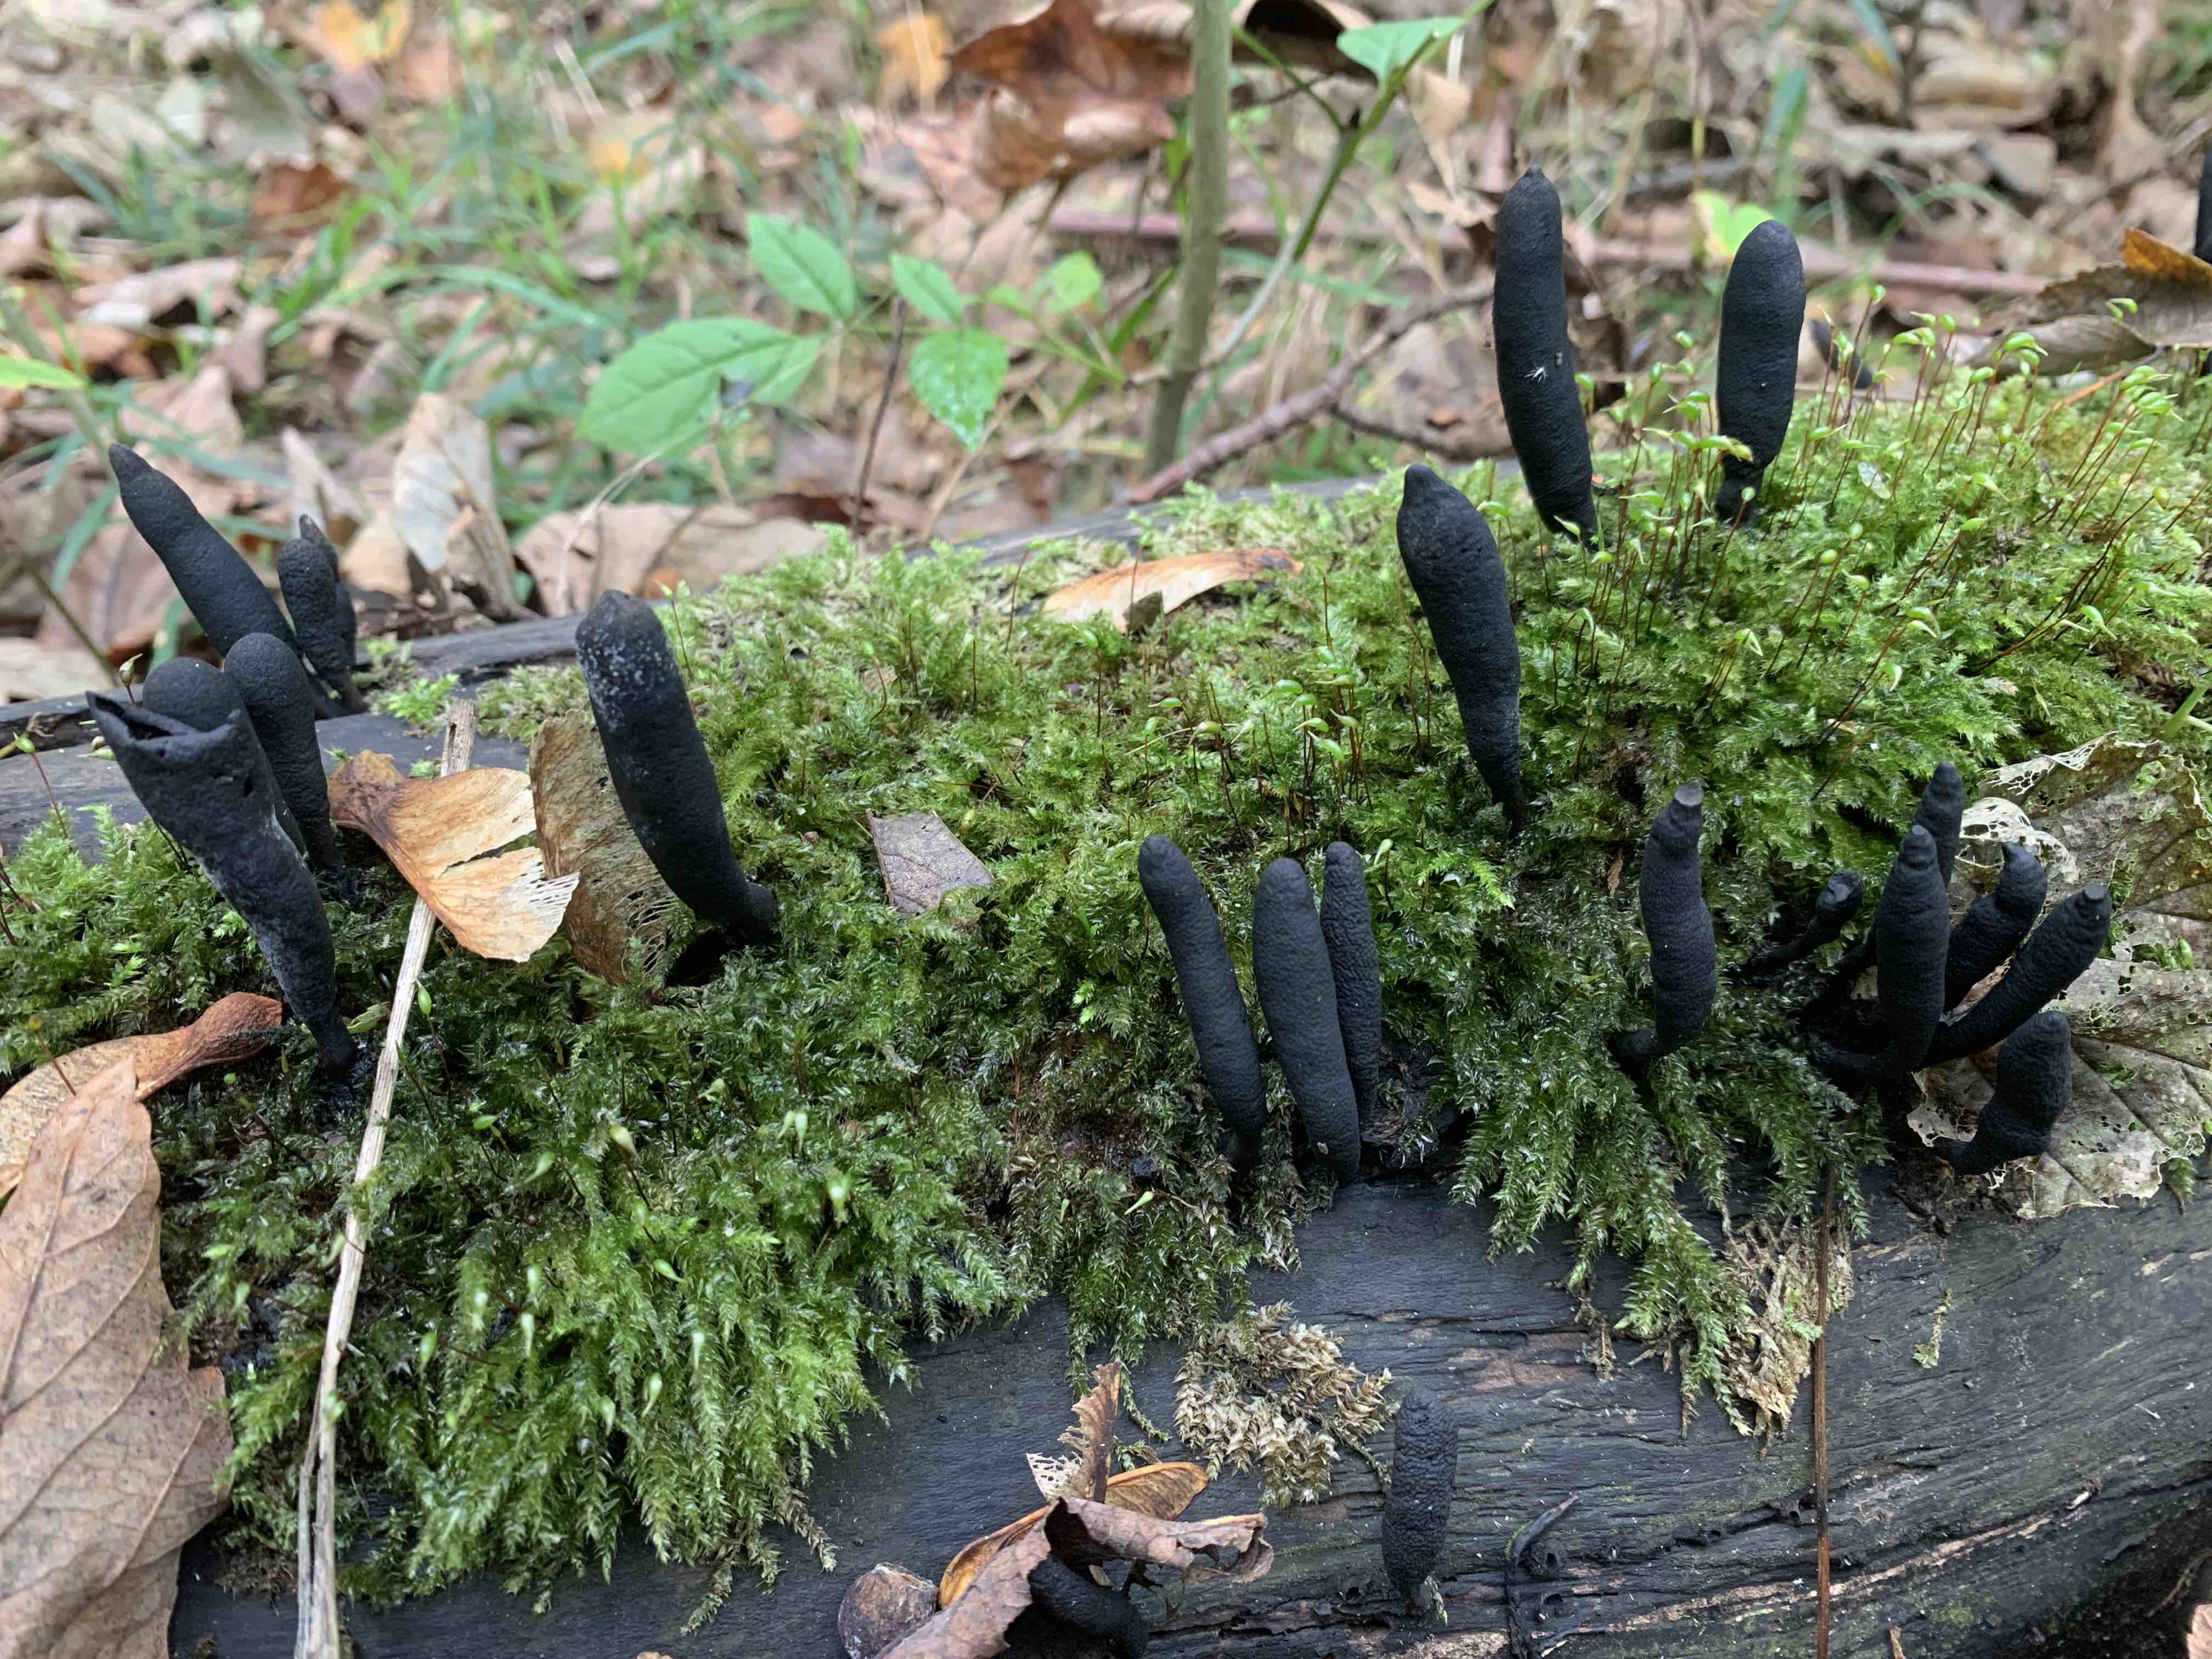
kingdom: Fungi
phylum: Ascomycota
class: Sordariomycetes
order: Xylariales
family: Xylariaceae
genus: Xylaria
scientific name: Xylaria longipes
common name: slank stødsvamp
